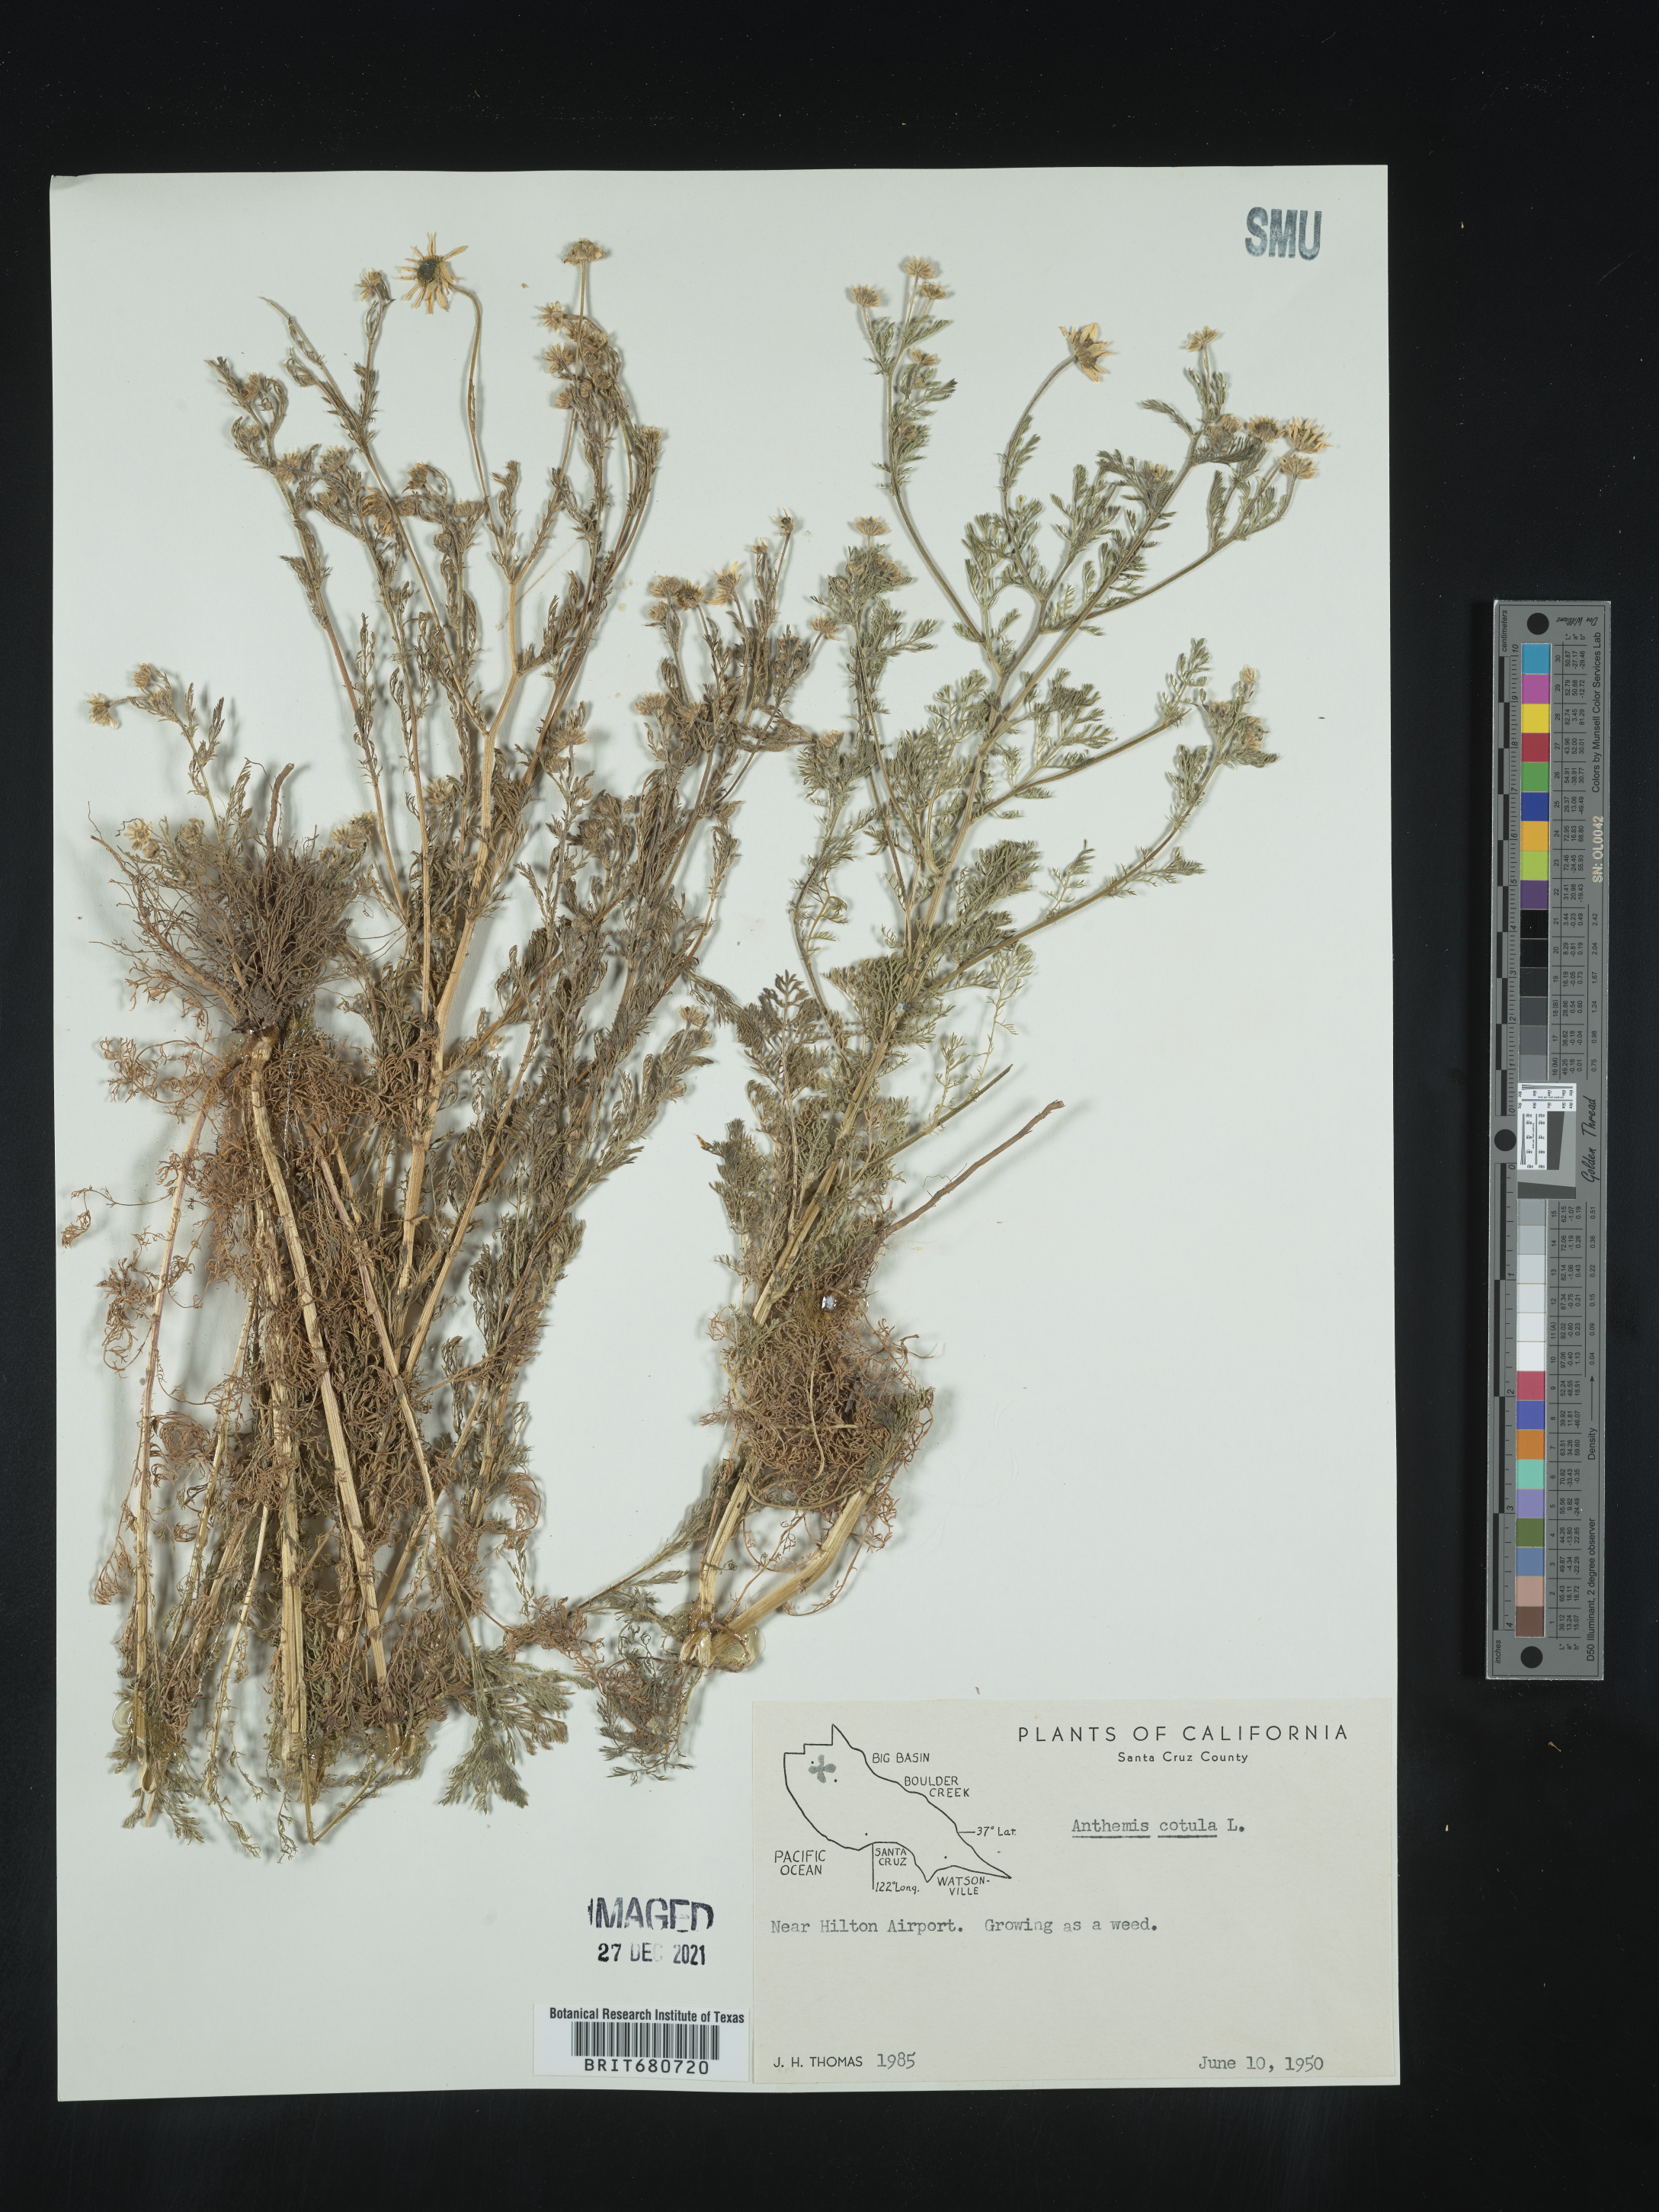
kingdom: Plantae
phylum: Tracheophyta
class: Magnoliopsida
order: Asterales
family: Asteraceae
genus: Anthemis
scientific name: Anthemis cotula
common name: Stinking chamomile
